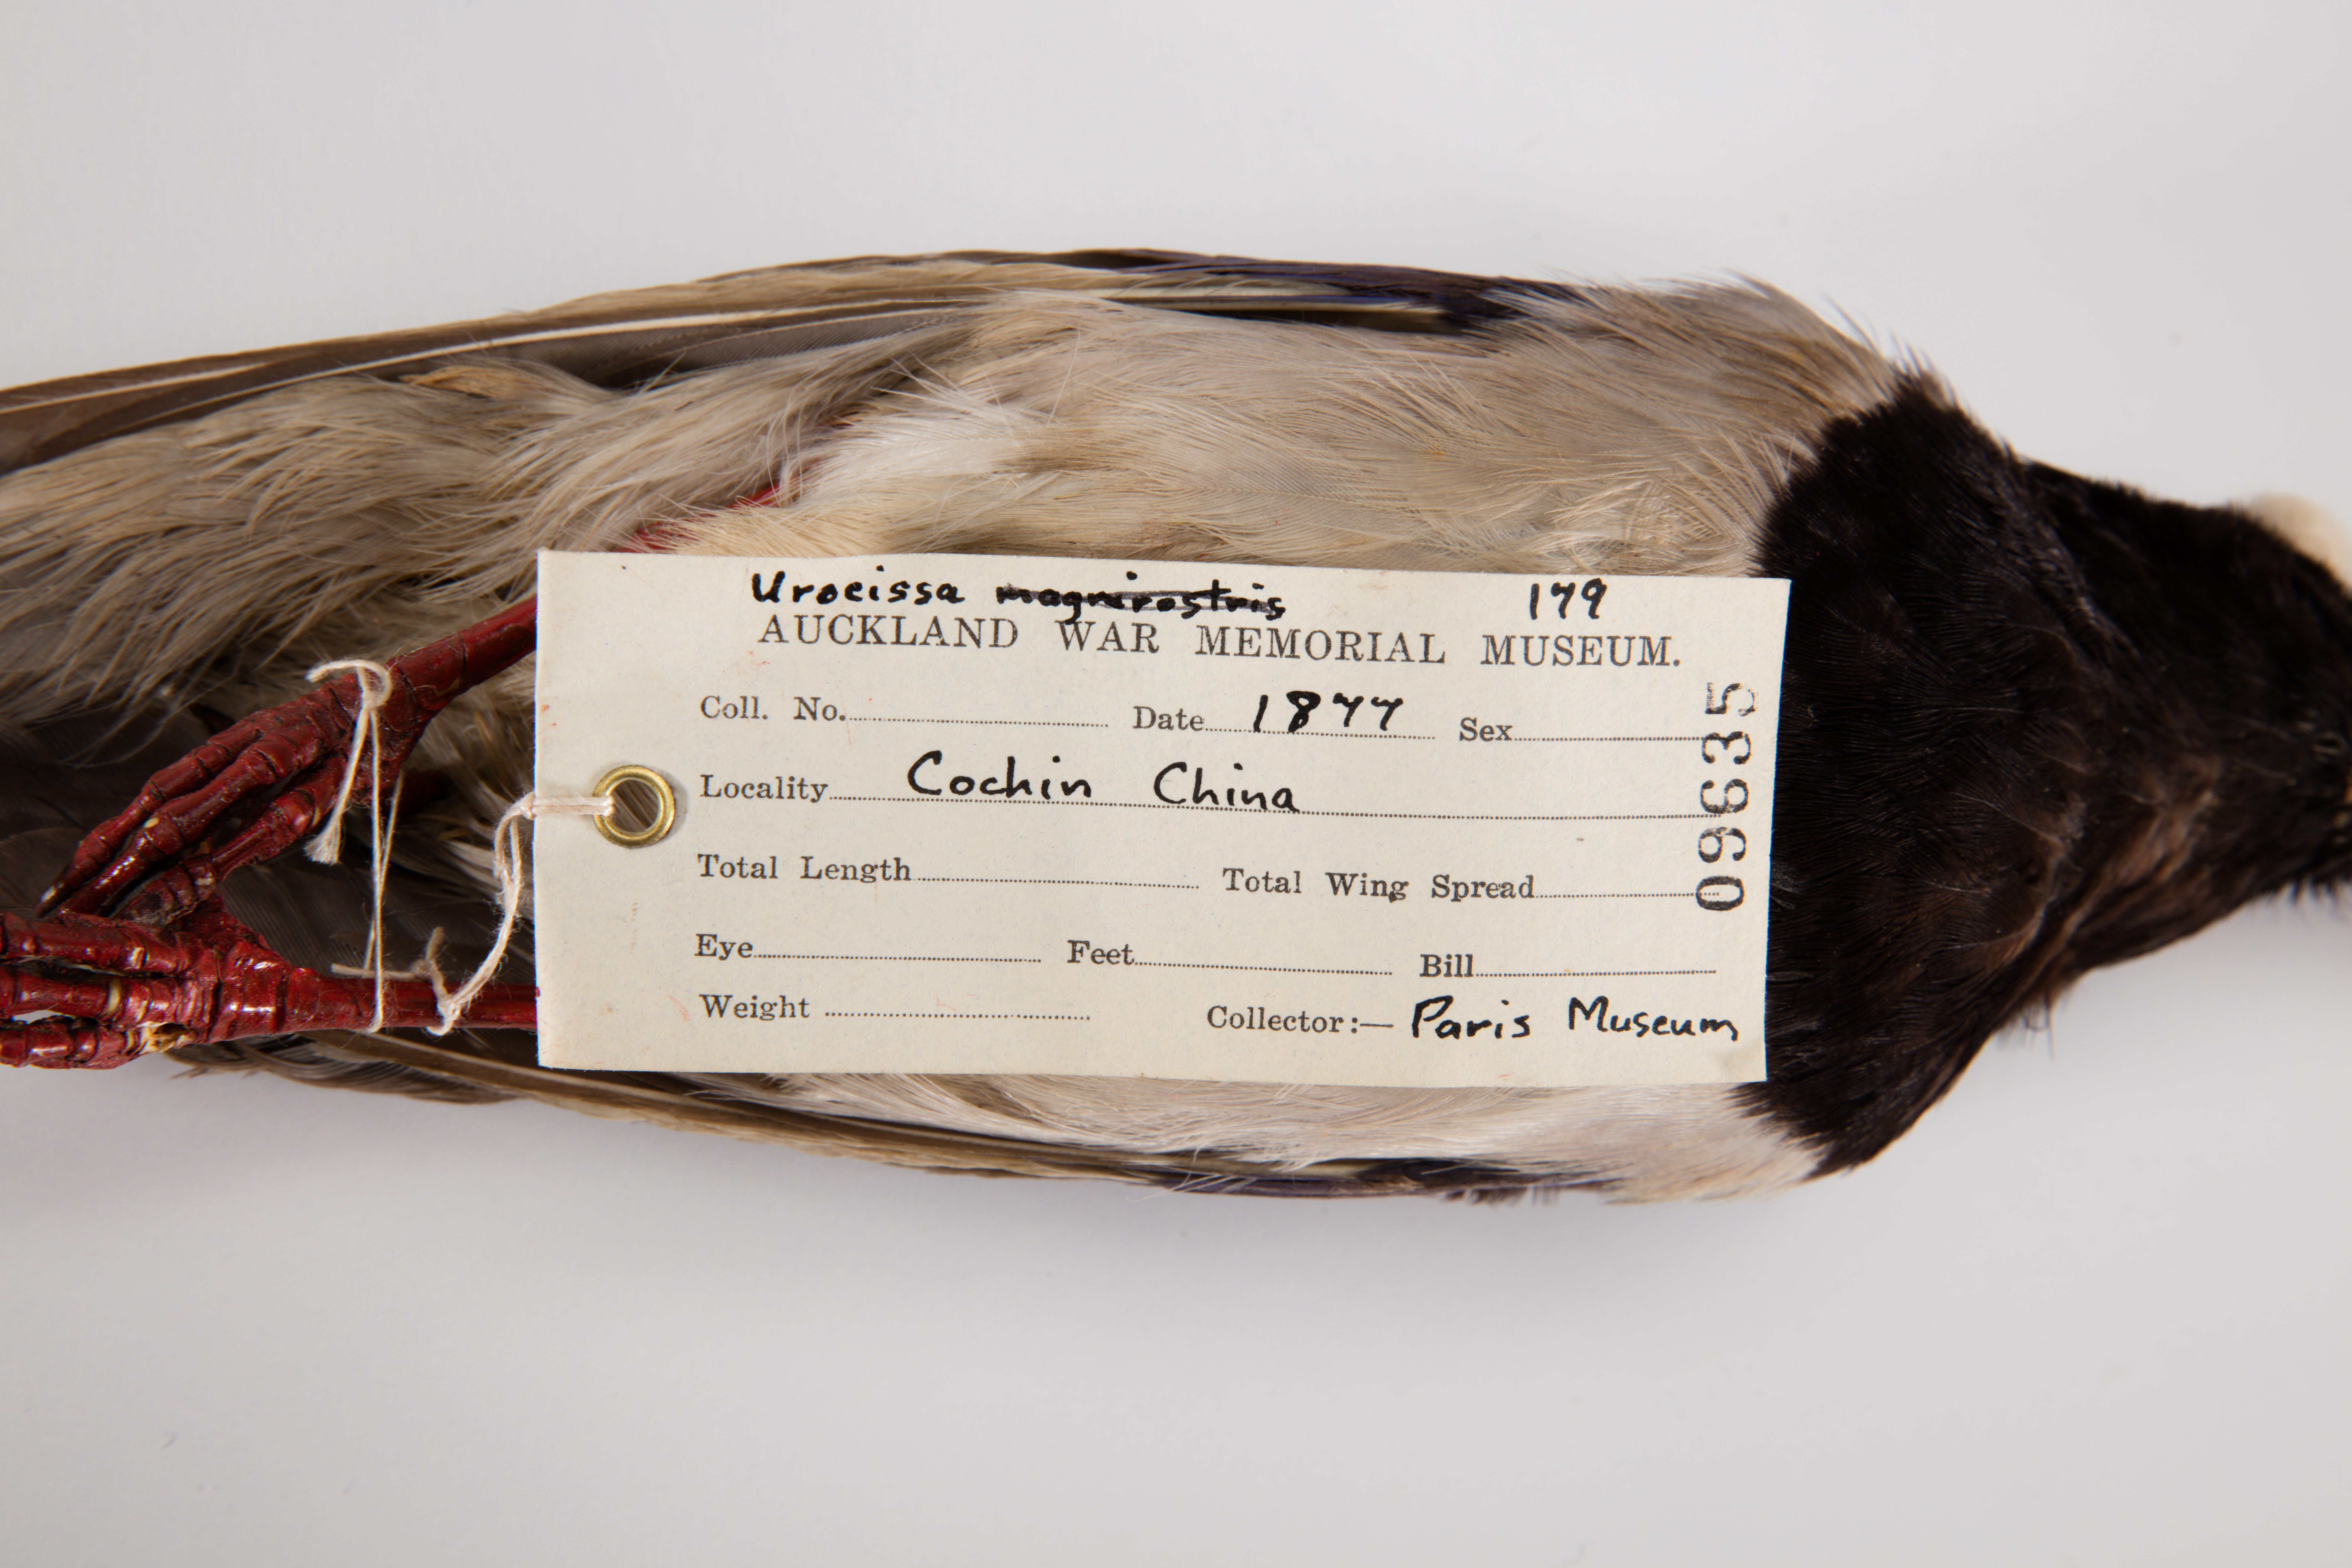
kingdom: Animalia
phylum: Chordata
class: Aves
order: Passeriformes
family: Corvidae
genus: Urocissa
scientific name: Urocissa erythroryncha
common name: Red-billed blue magpie
